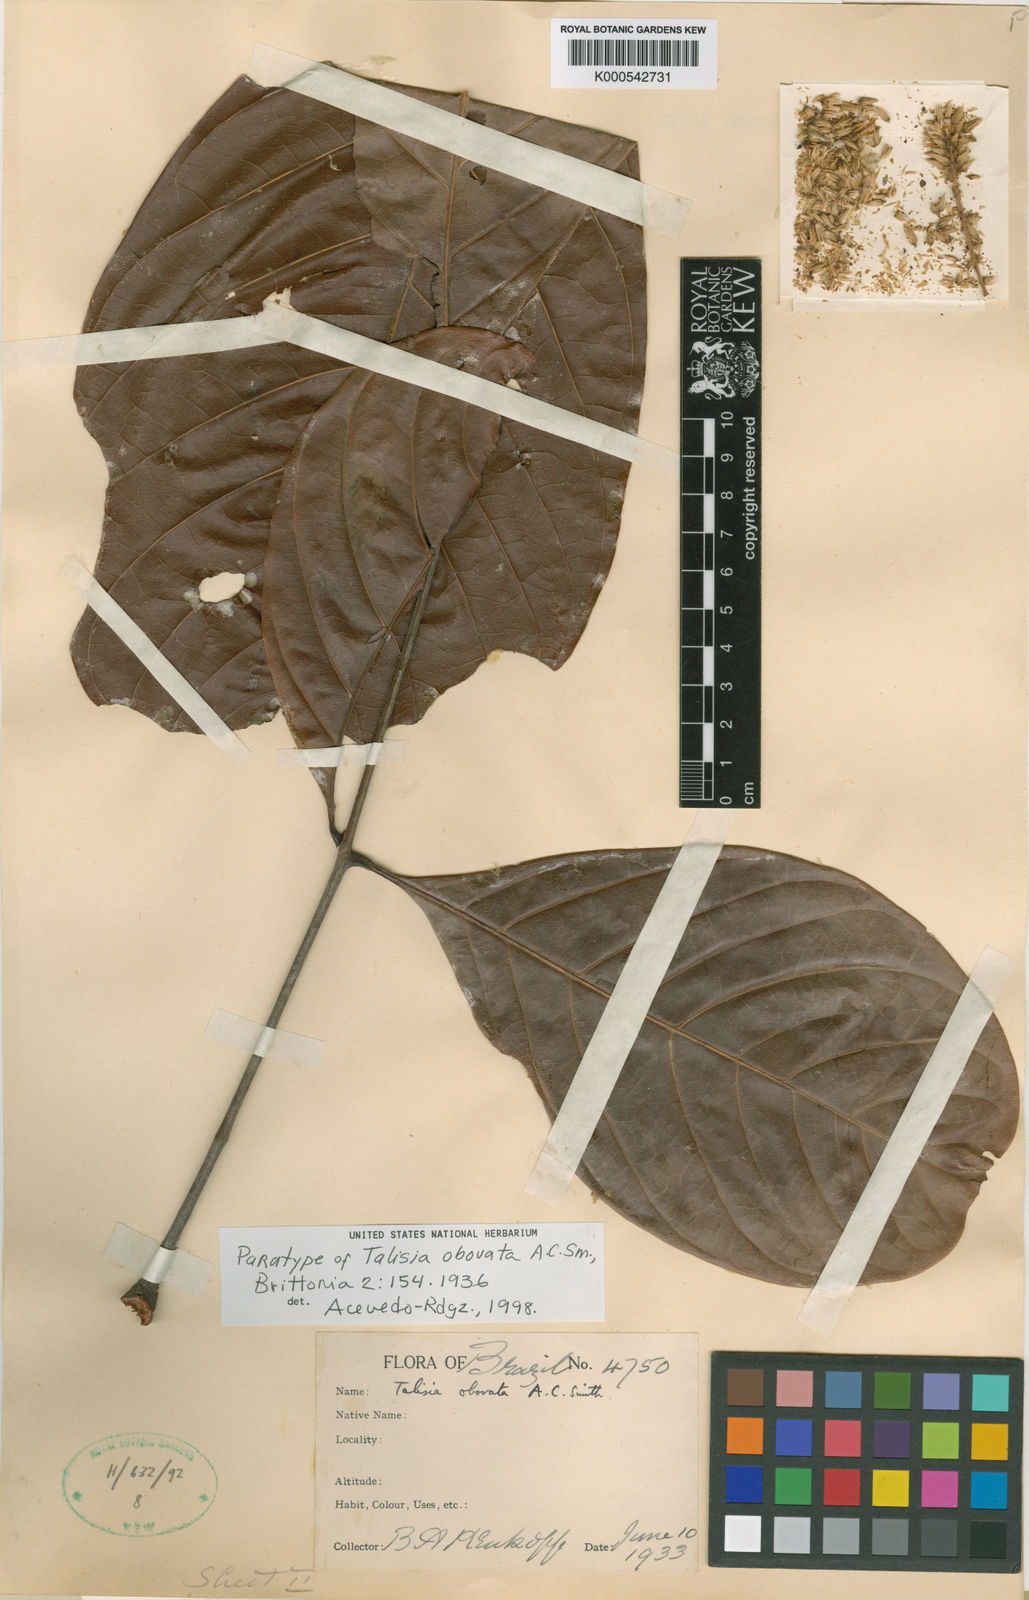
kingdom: Plantae
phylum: Tracheophyta
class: Magnoliopsida
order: Sapindales
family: Sapindaceae
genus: Talisia
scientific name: Talisia obovata
